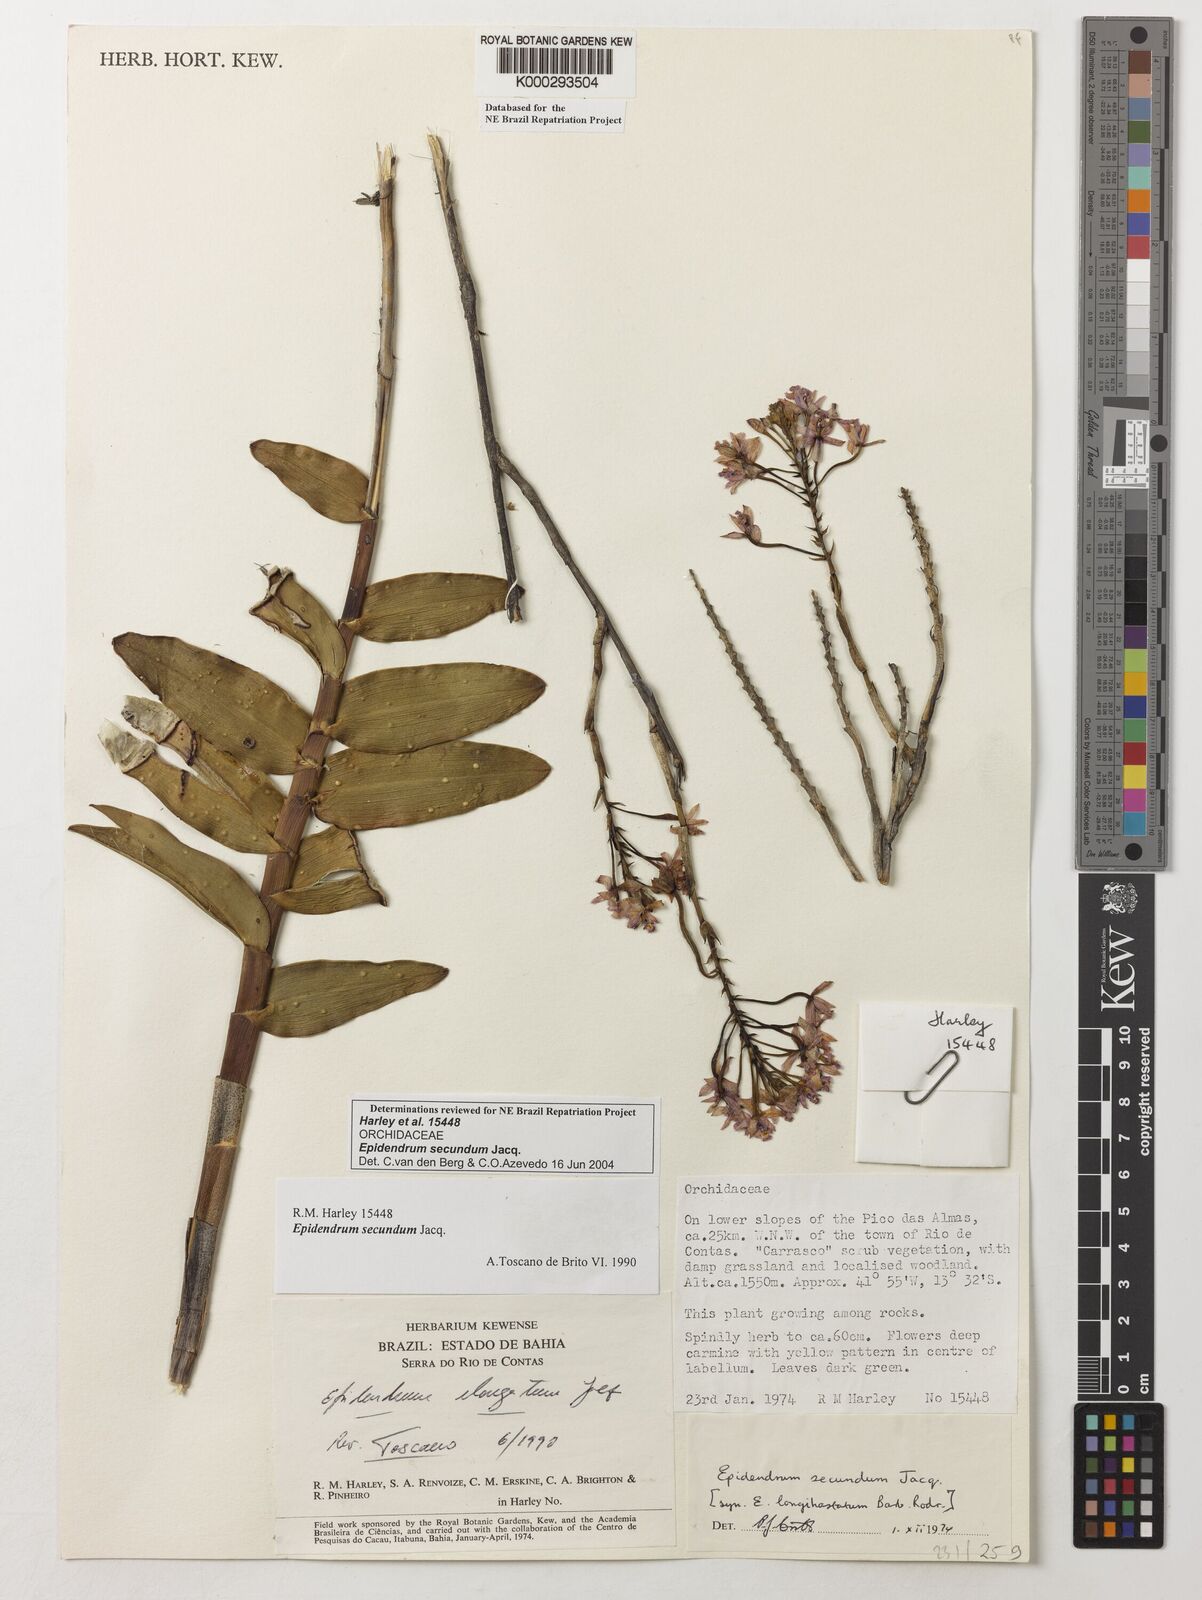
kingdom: Plantae
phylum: Tracheophyta
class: Liliopsida
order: Asparagales
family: Orchidaceae
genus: Epidendrum
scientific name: Epidendrum secundum
